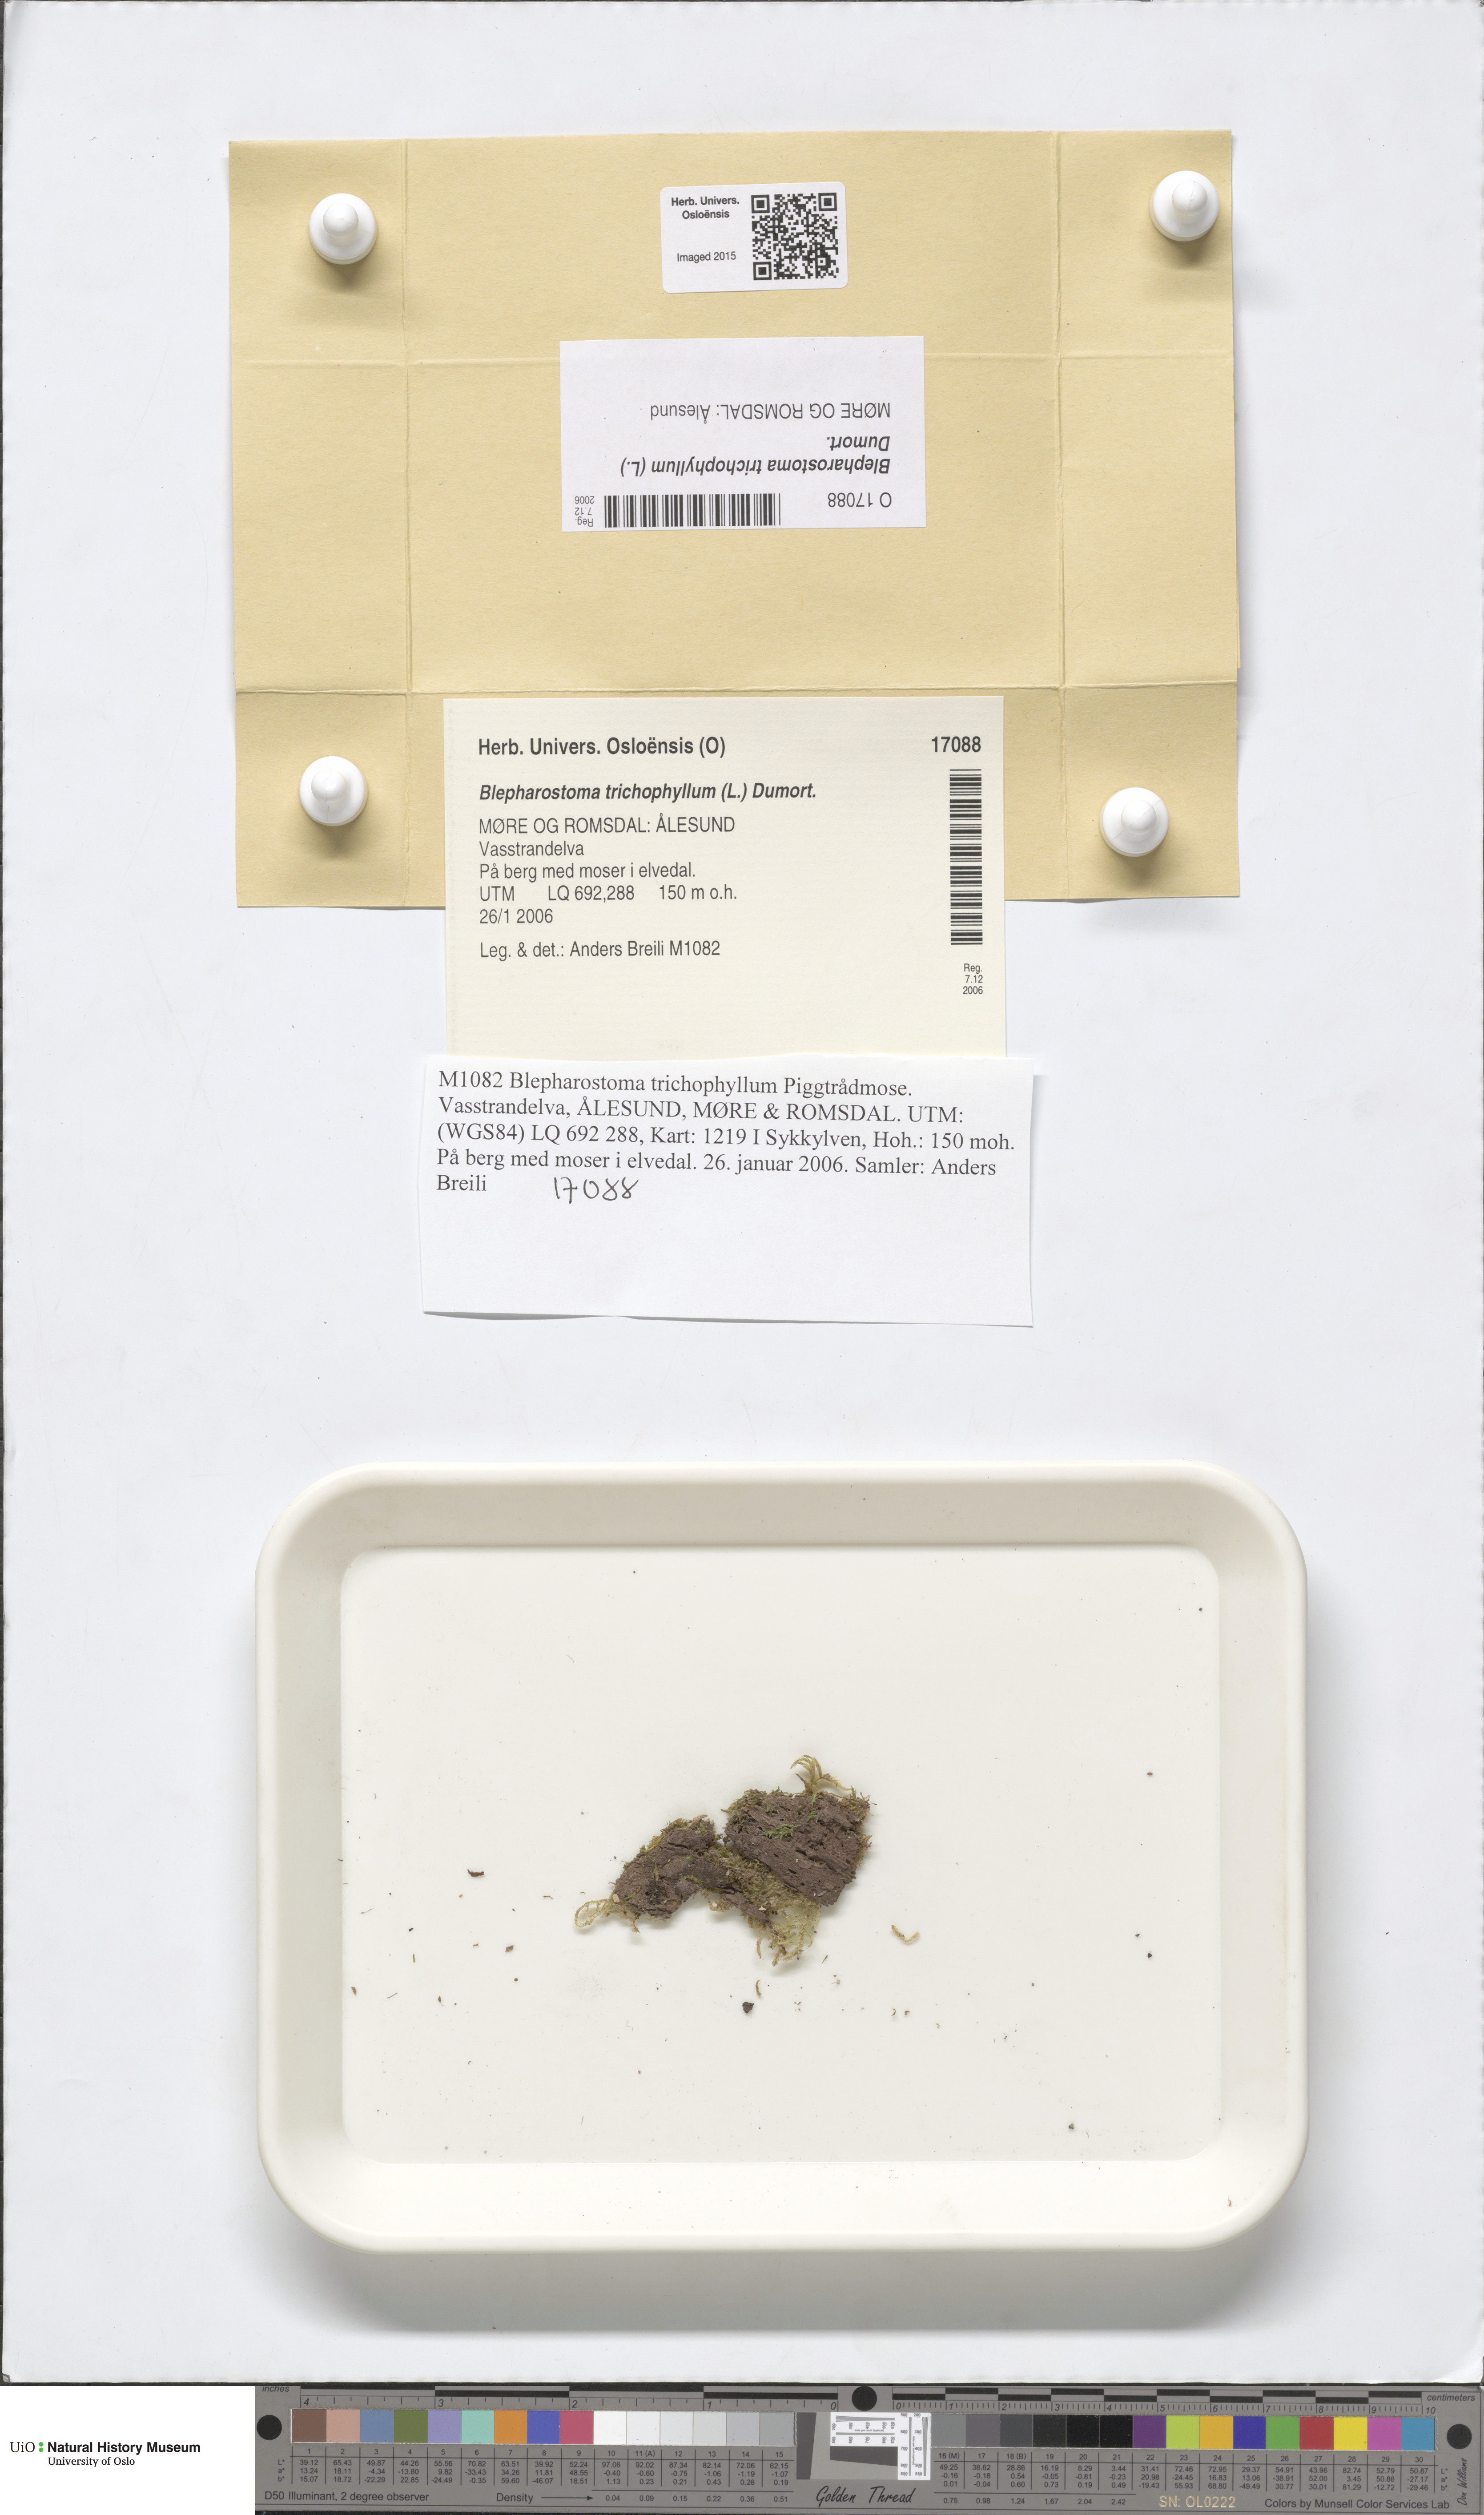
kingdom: Plantae
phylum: Marchantiophyta
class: Jungermanniopsida
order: Jungermanniales
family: Blepharostomataceae
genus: Blepharostoma
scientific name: Blepharostoma trichophyllum
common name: Hairy threadwort
